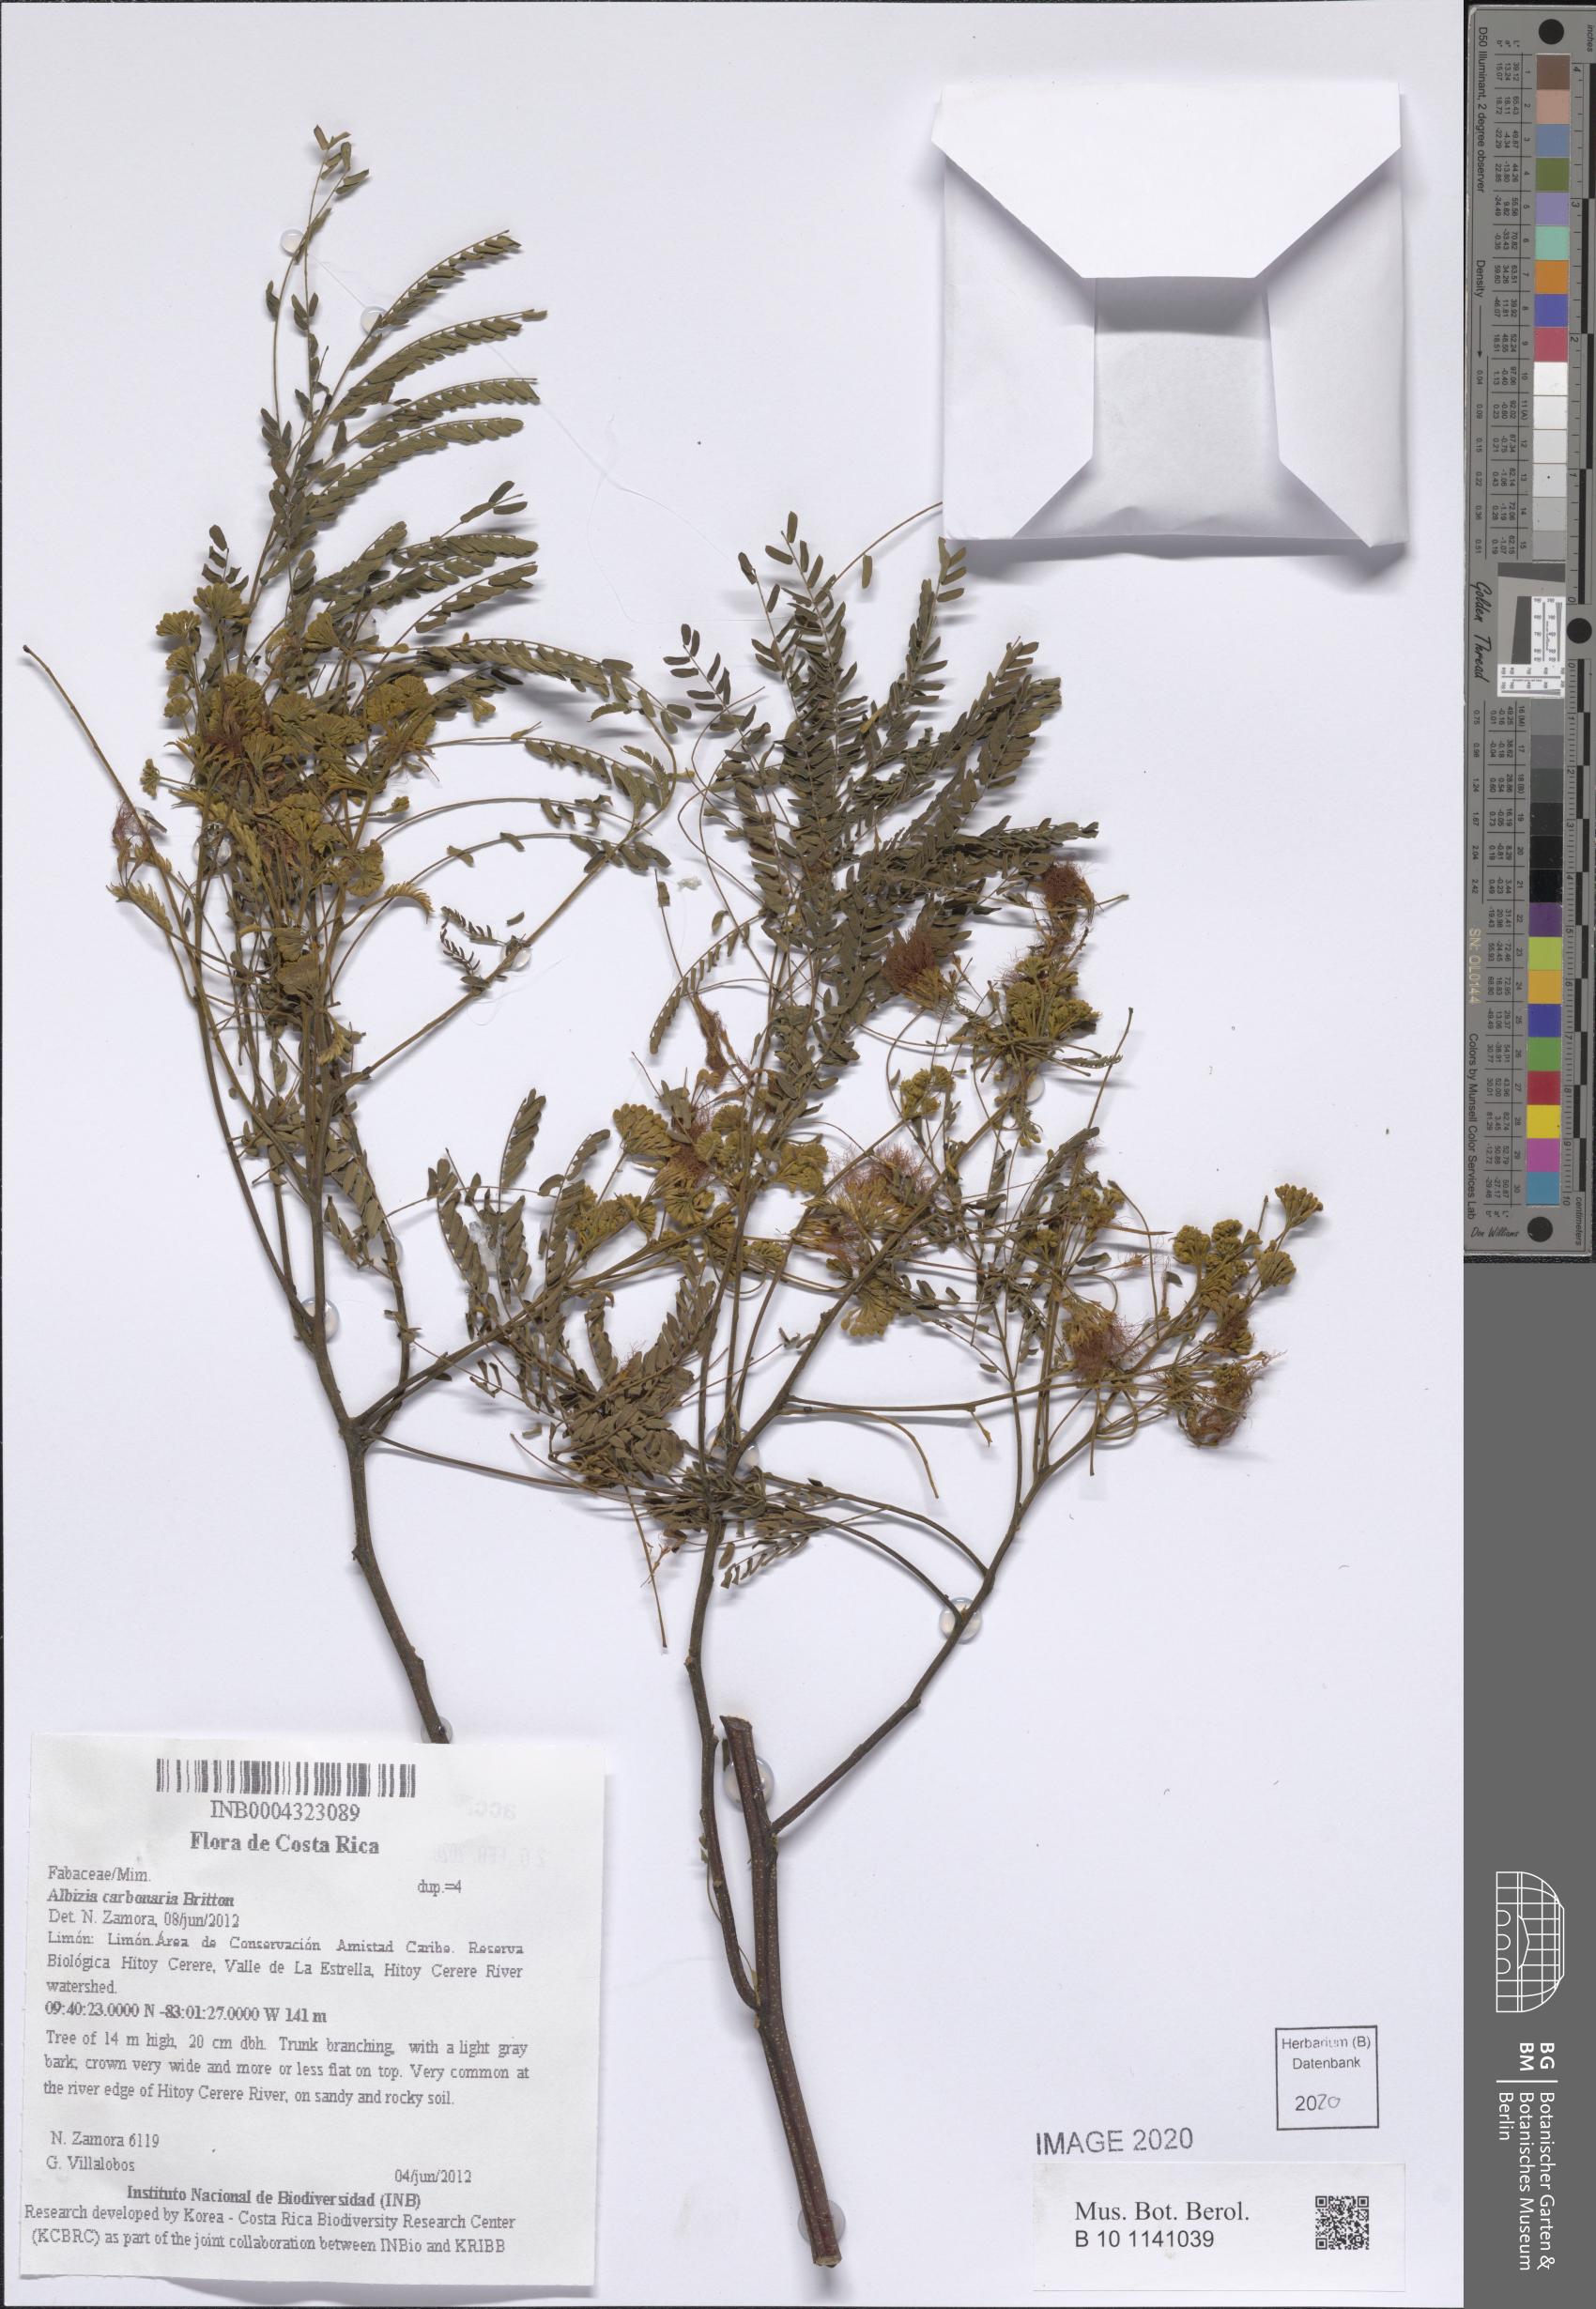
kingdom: Plantae
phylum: Tracheophyta
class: Magnoliopsida
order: Fabales
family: Fabaceae
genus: Albizia
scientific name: Albizia carbonaria
